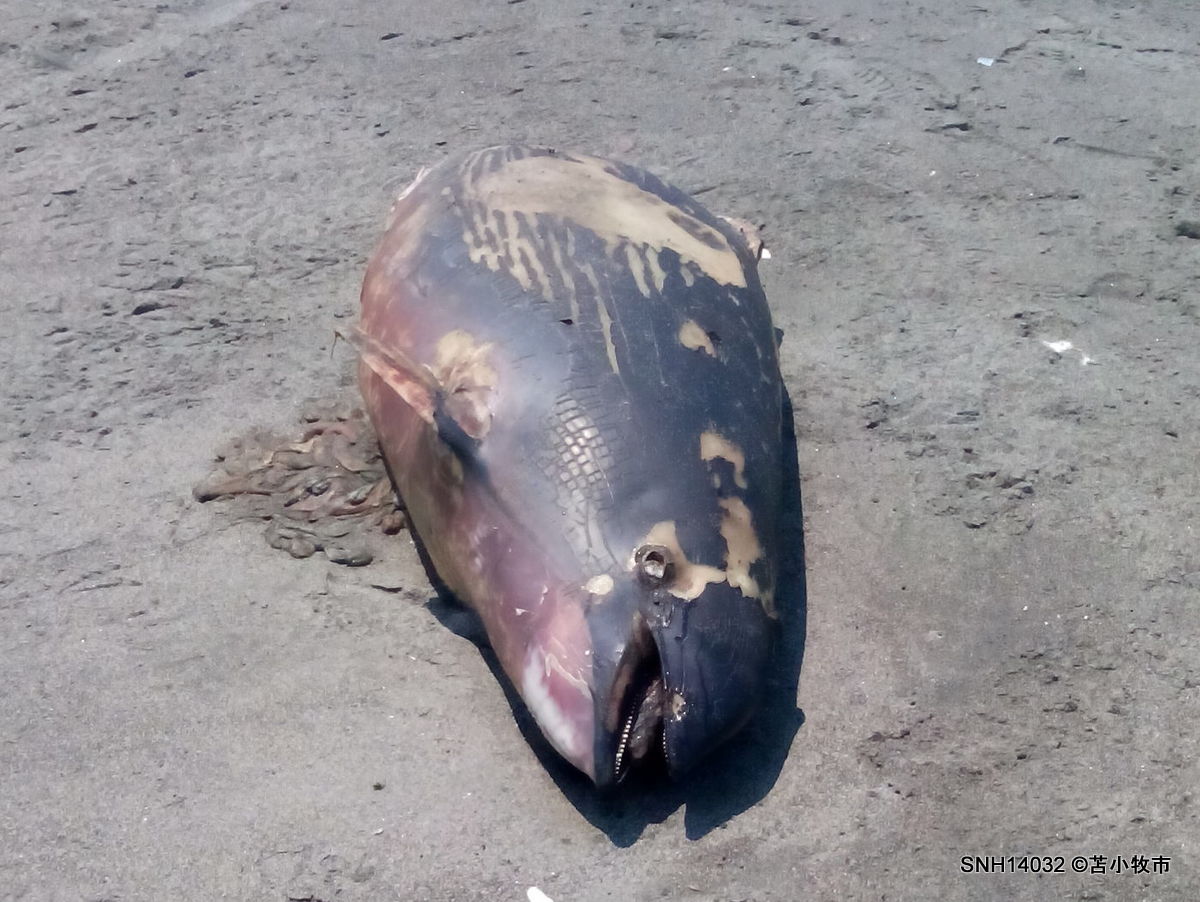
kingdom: Animalia
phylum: Chordata
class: Mammalia
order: Cetacea
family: Phocoenidae
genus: Phocoena
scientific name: Phocoena phocoena
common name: Harbour porpoise
